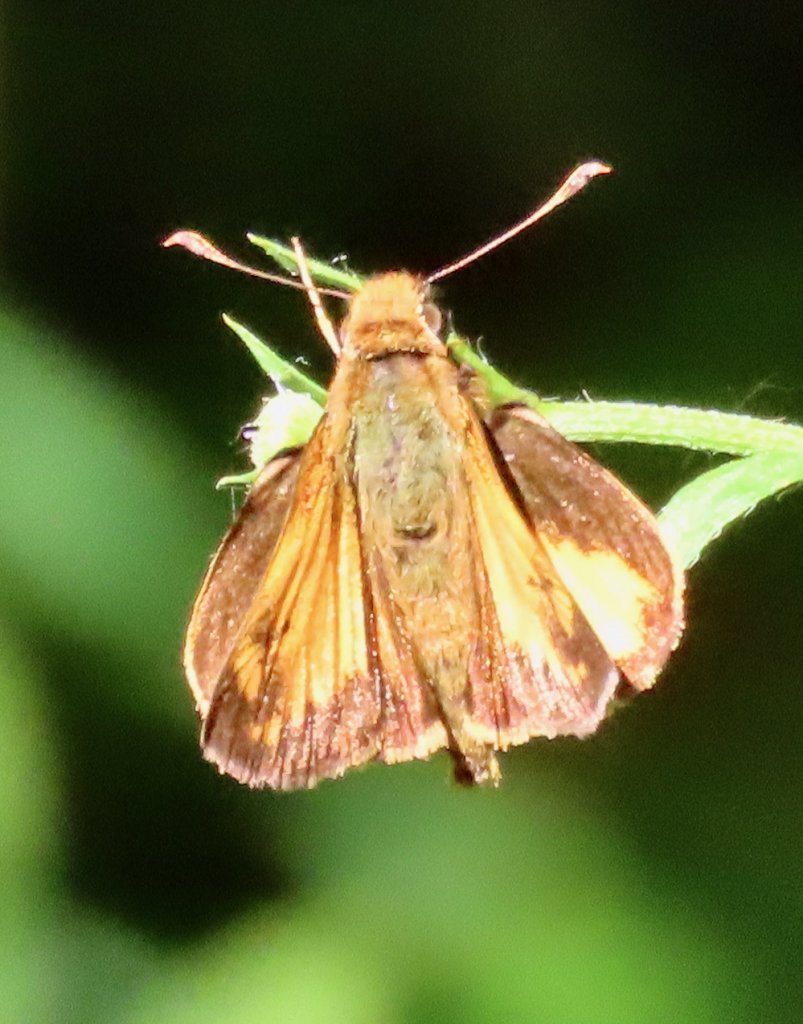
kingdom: Animalia
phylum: Arthropoda
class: Insecta
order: Lepidoptera
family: Hesperiidae
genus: Lon
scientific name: Lon zabulon
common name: Zabulon Skipper
